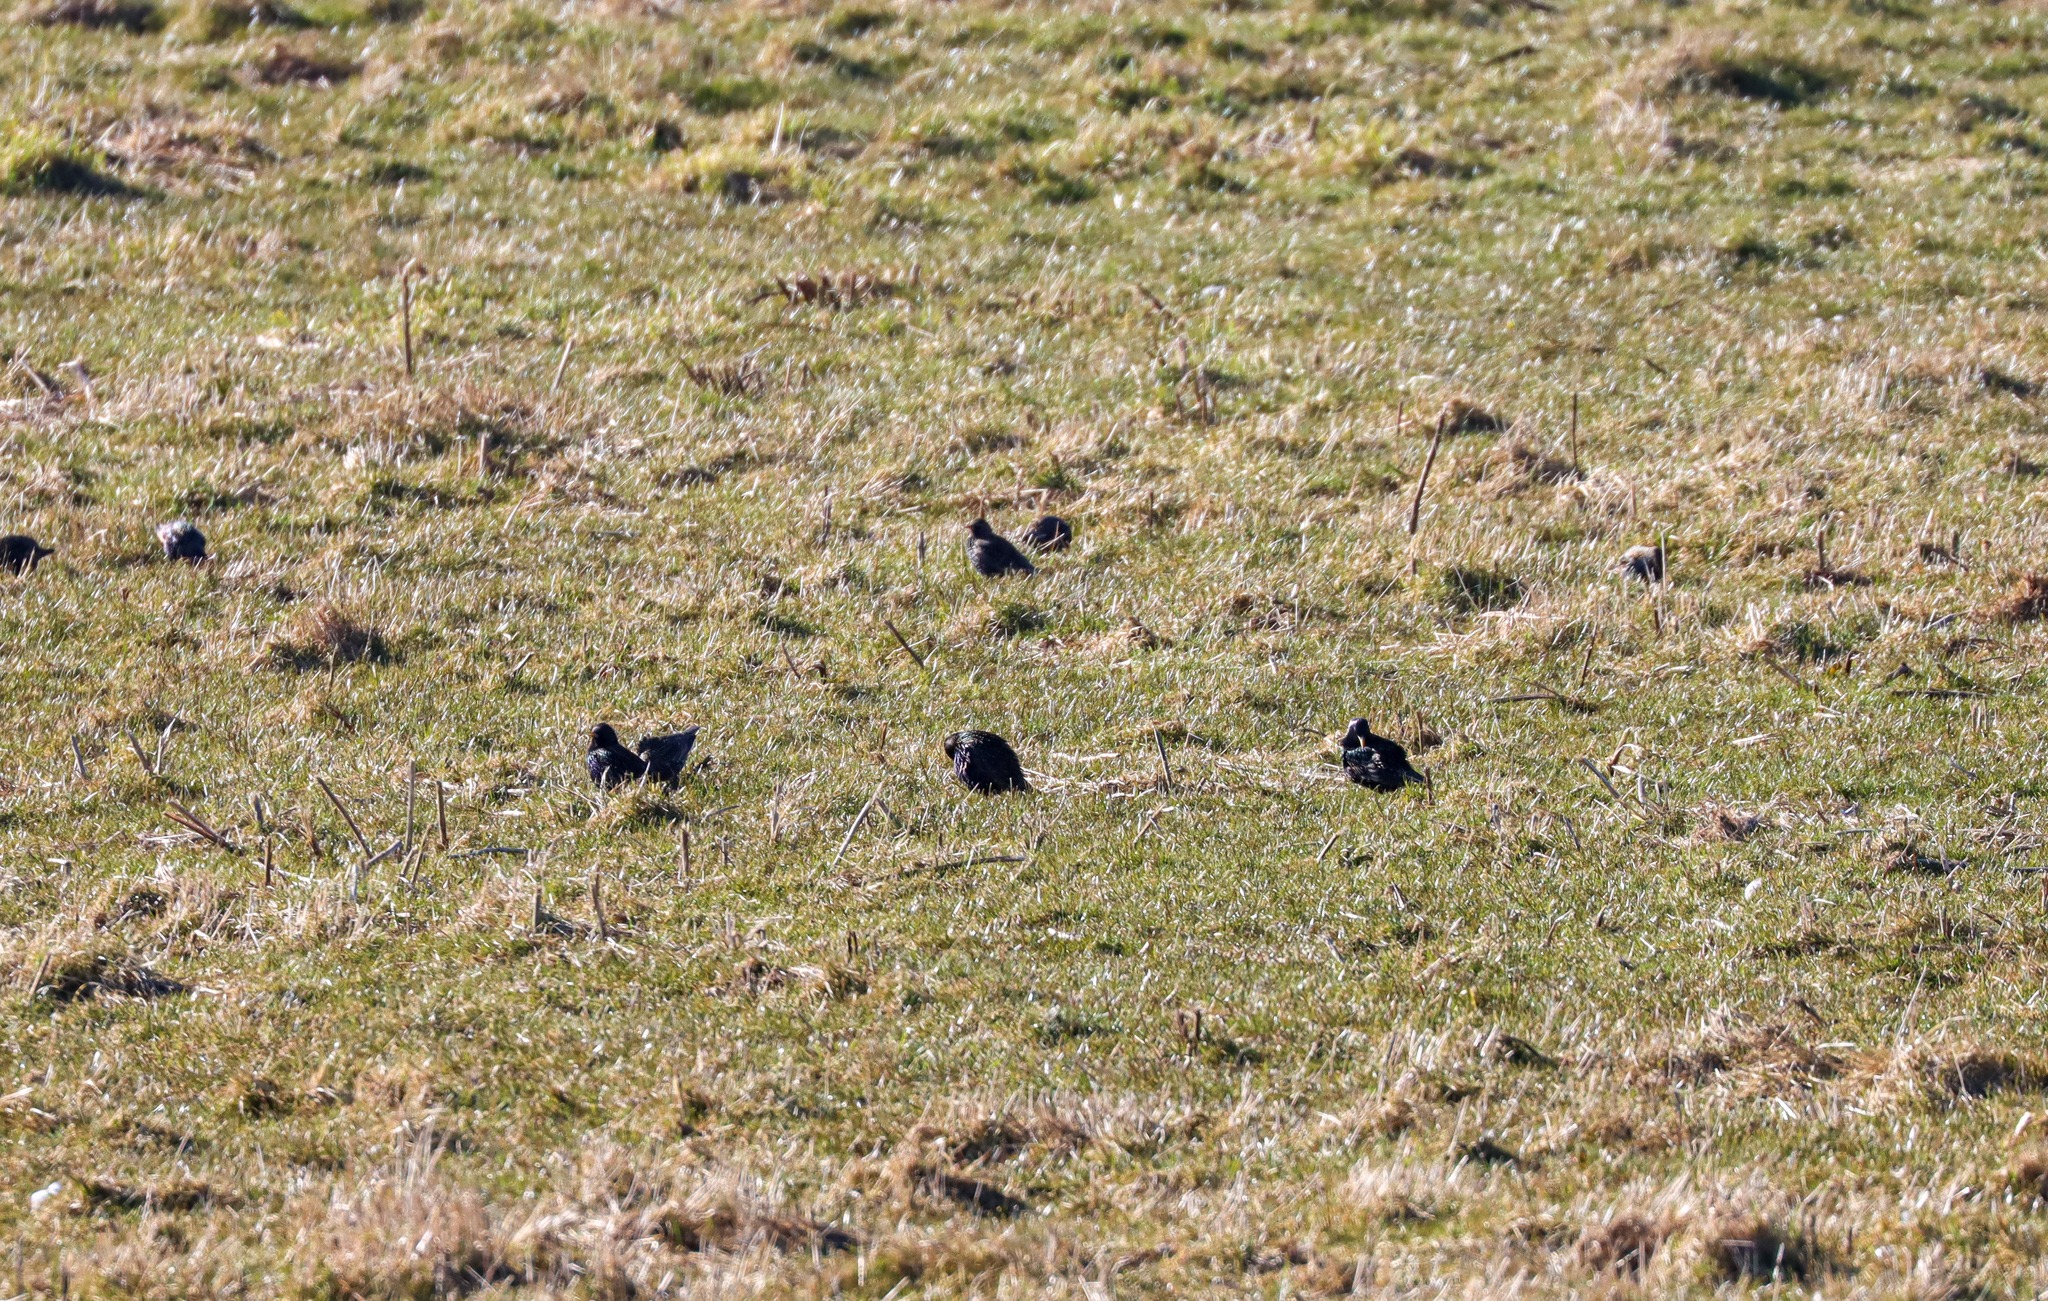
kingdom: Animalia
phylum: Chordata
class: Aves
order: Passeriformes
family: Sturnidae
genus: Sturnus
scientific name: Sturnus vulgaris
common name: Stær
